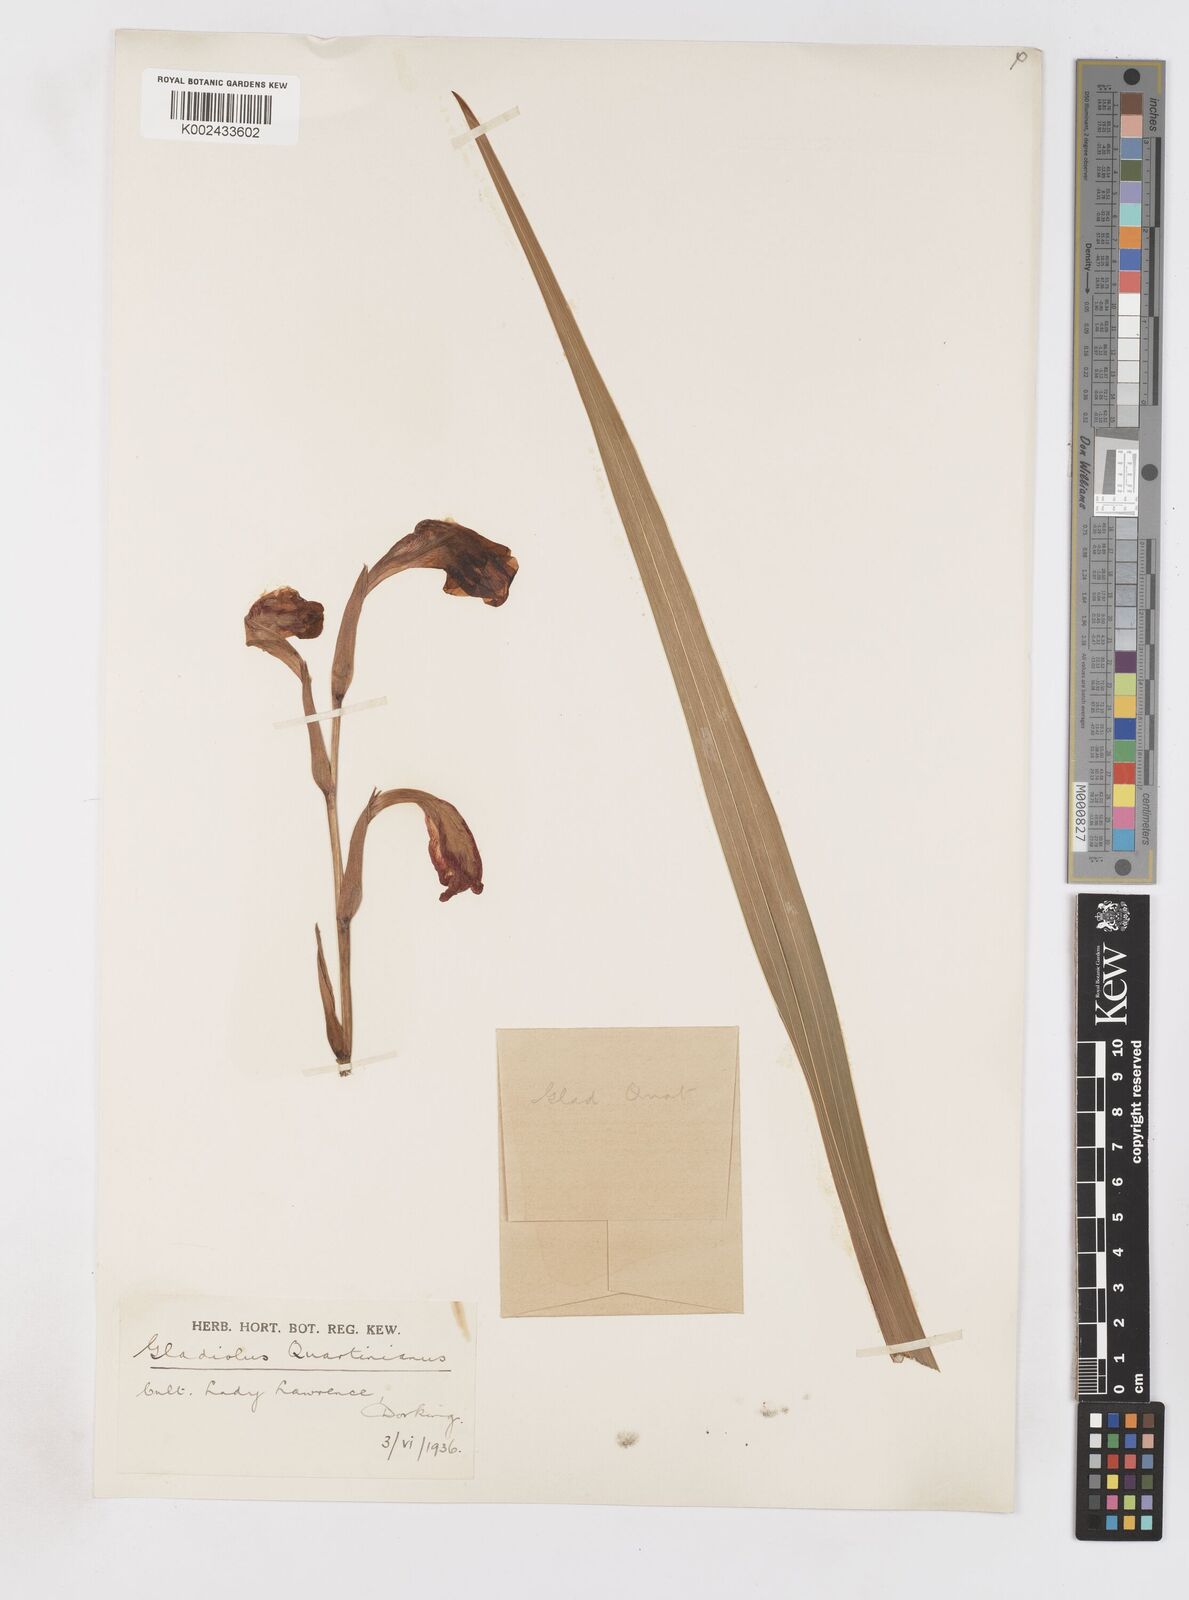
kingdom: Plantae
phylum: Tracheophyta
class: Liliopsida
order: Asparagales
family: Iridaceae
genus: Gladiolus
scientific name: Gladiolus watsonioides
